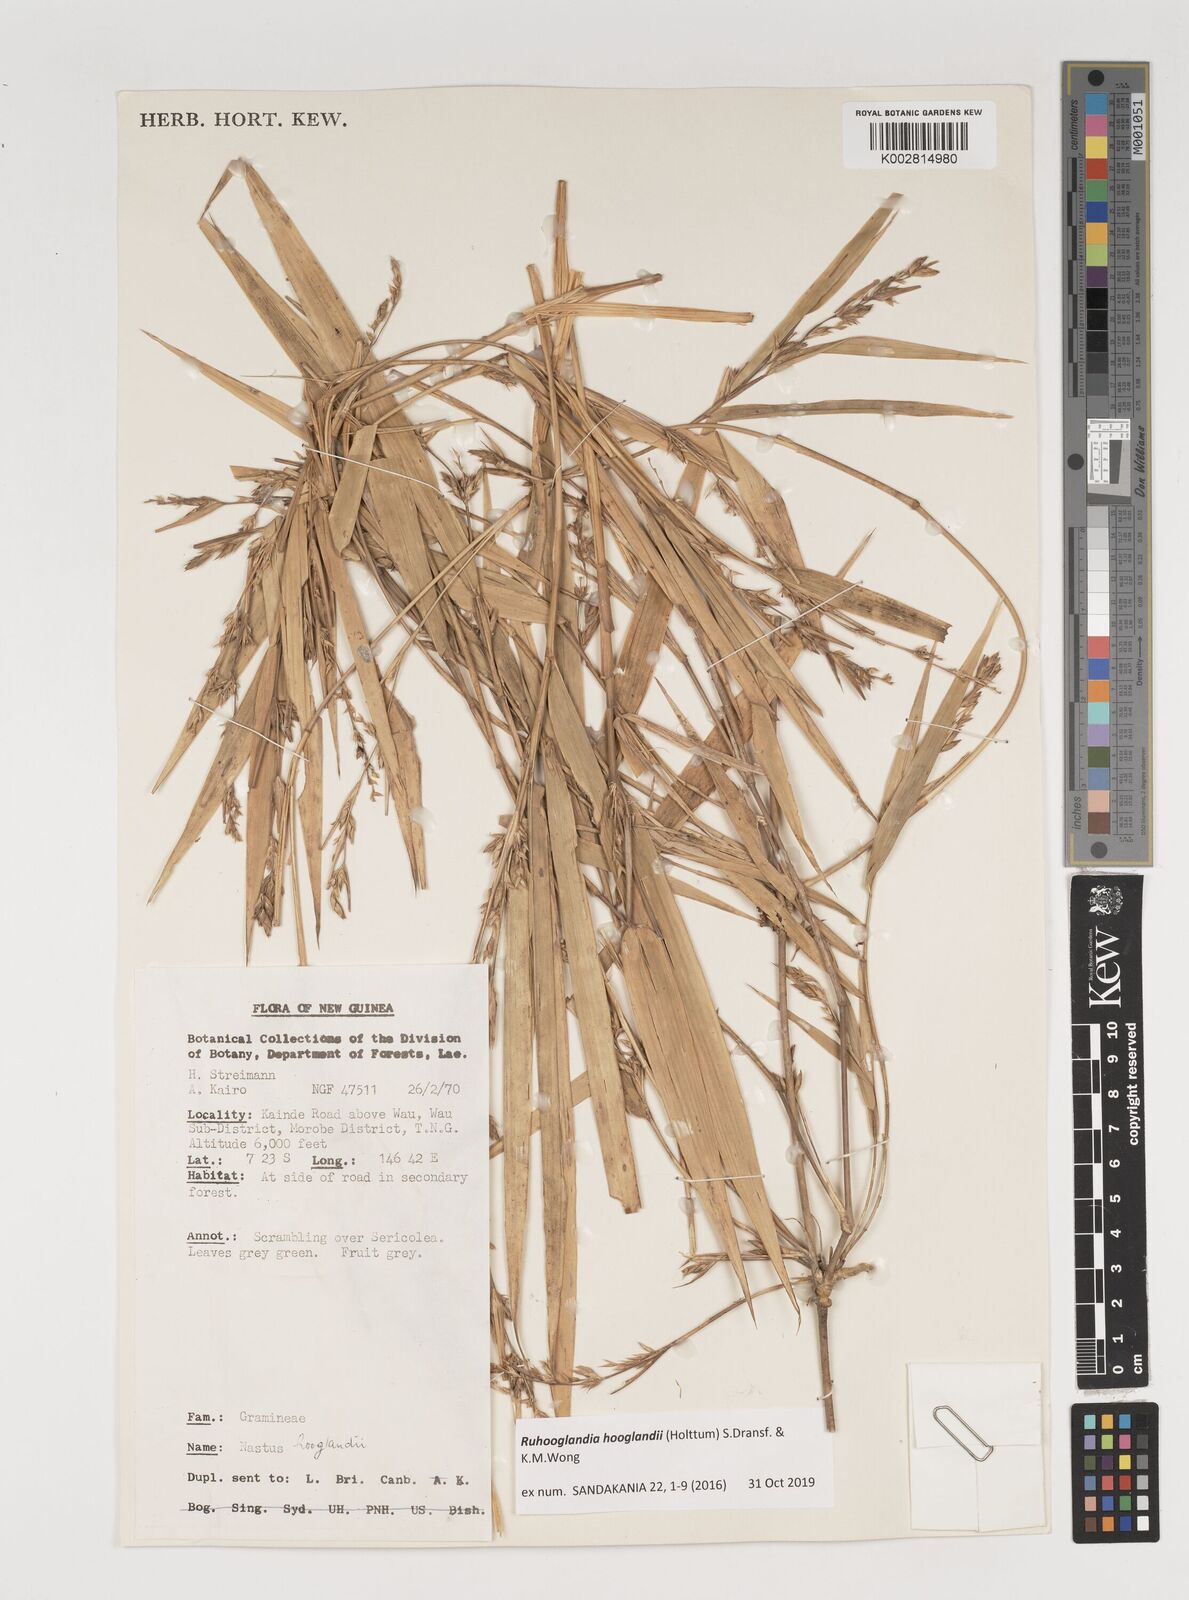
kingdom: Plantae
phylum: Tracheophyta
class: Liliopsida
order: Poales
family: Poaceae
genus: Greslania
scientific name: Greslania
